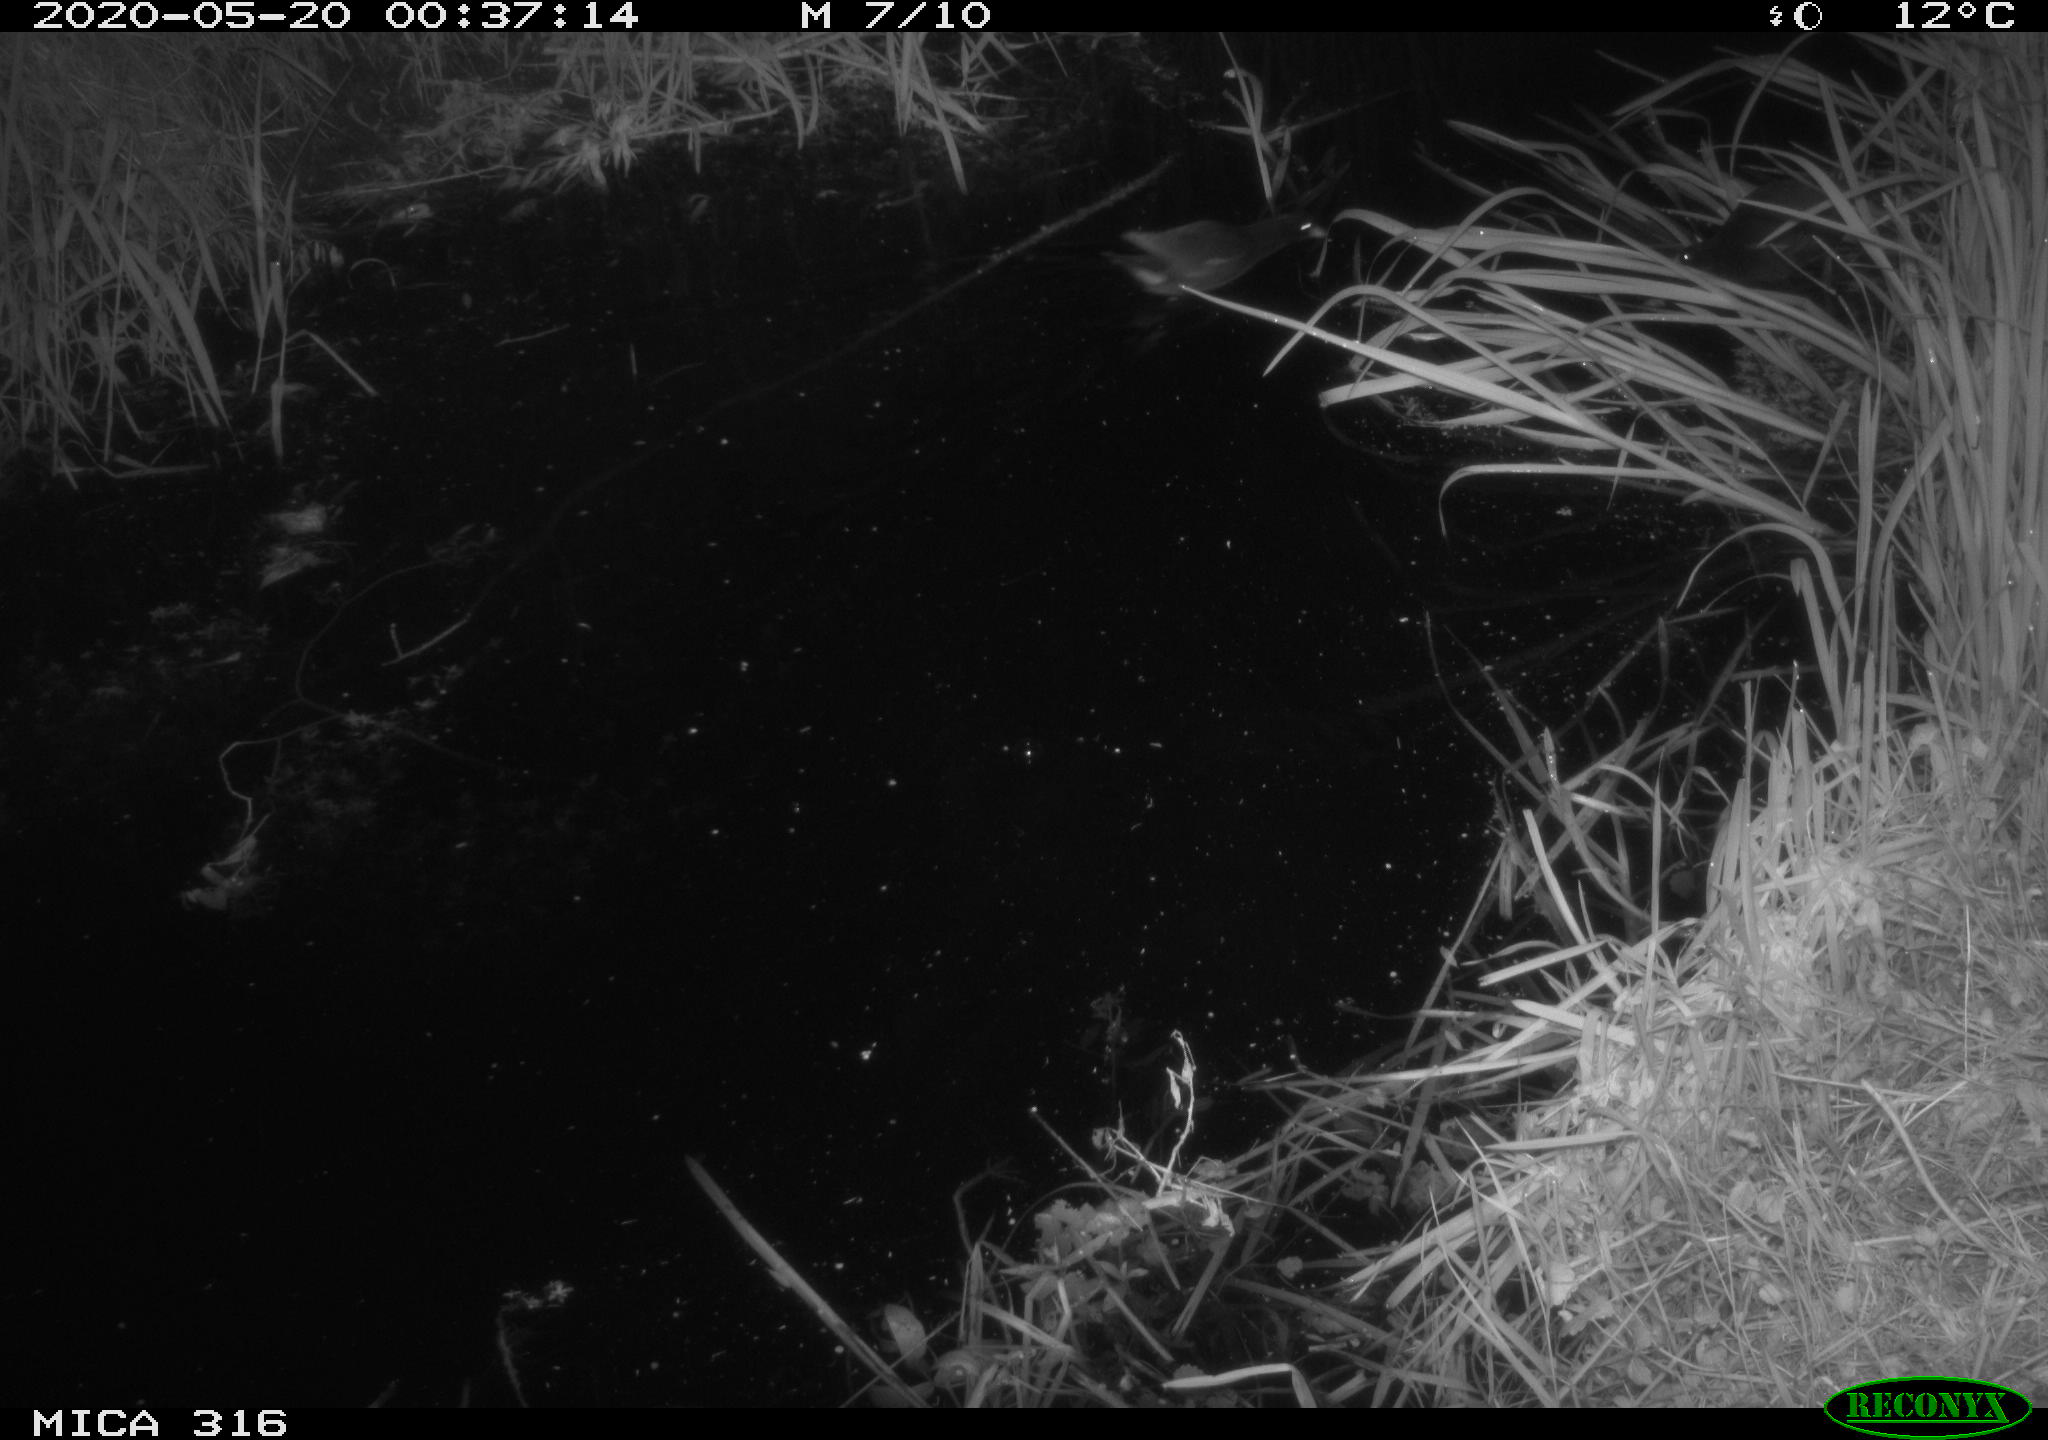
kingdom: Animalia
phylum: Chordata
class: Aves
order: Gruiformes
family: Rallidae
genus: Gallinula
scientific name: Gallinula chloropus
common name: Common moorhen
